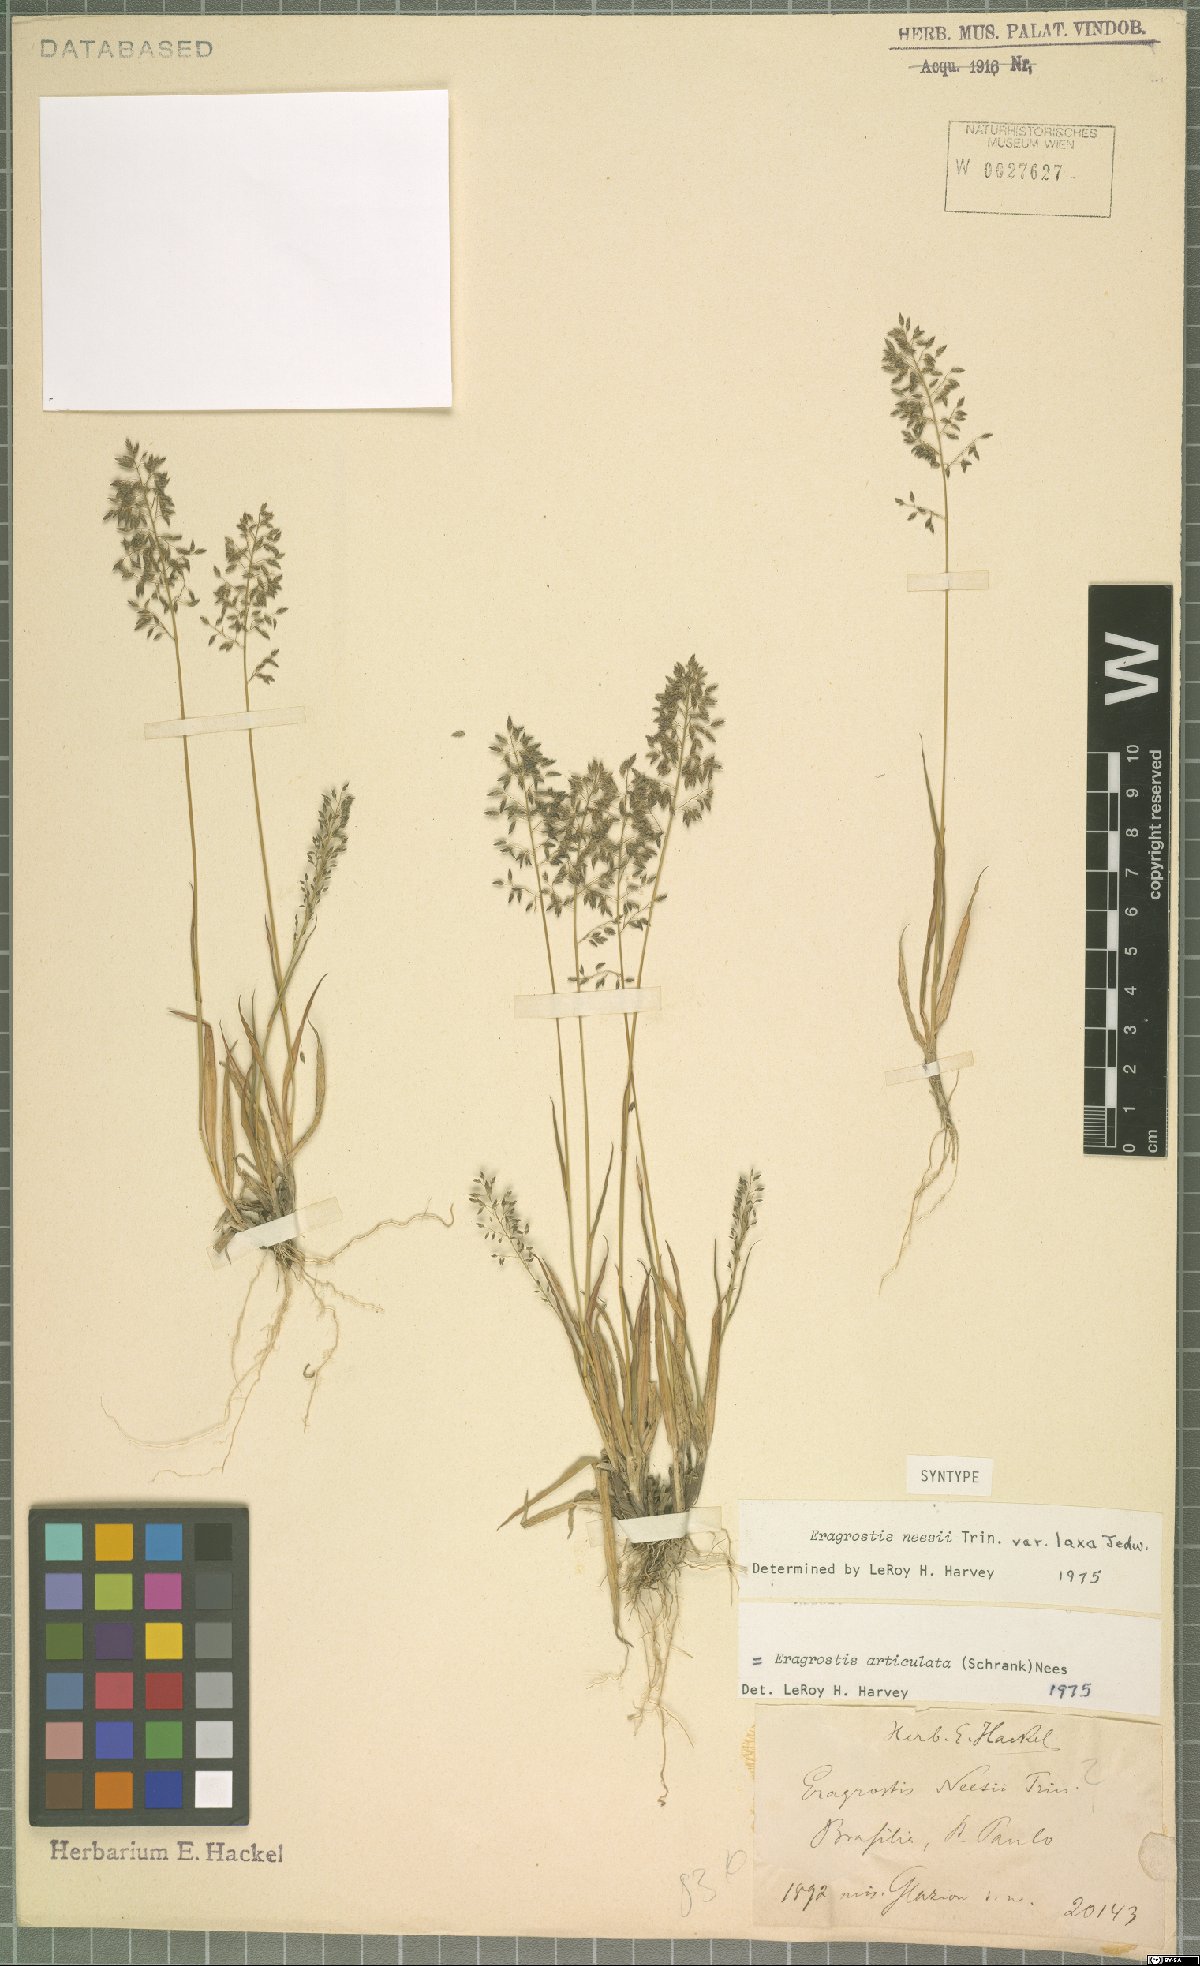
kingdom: Plantae
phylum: Tracheophyta
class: Liliopsida
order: Poales
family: Poaceae
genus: Eragrostis
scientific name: Eragrostis articulata
